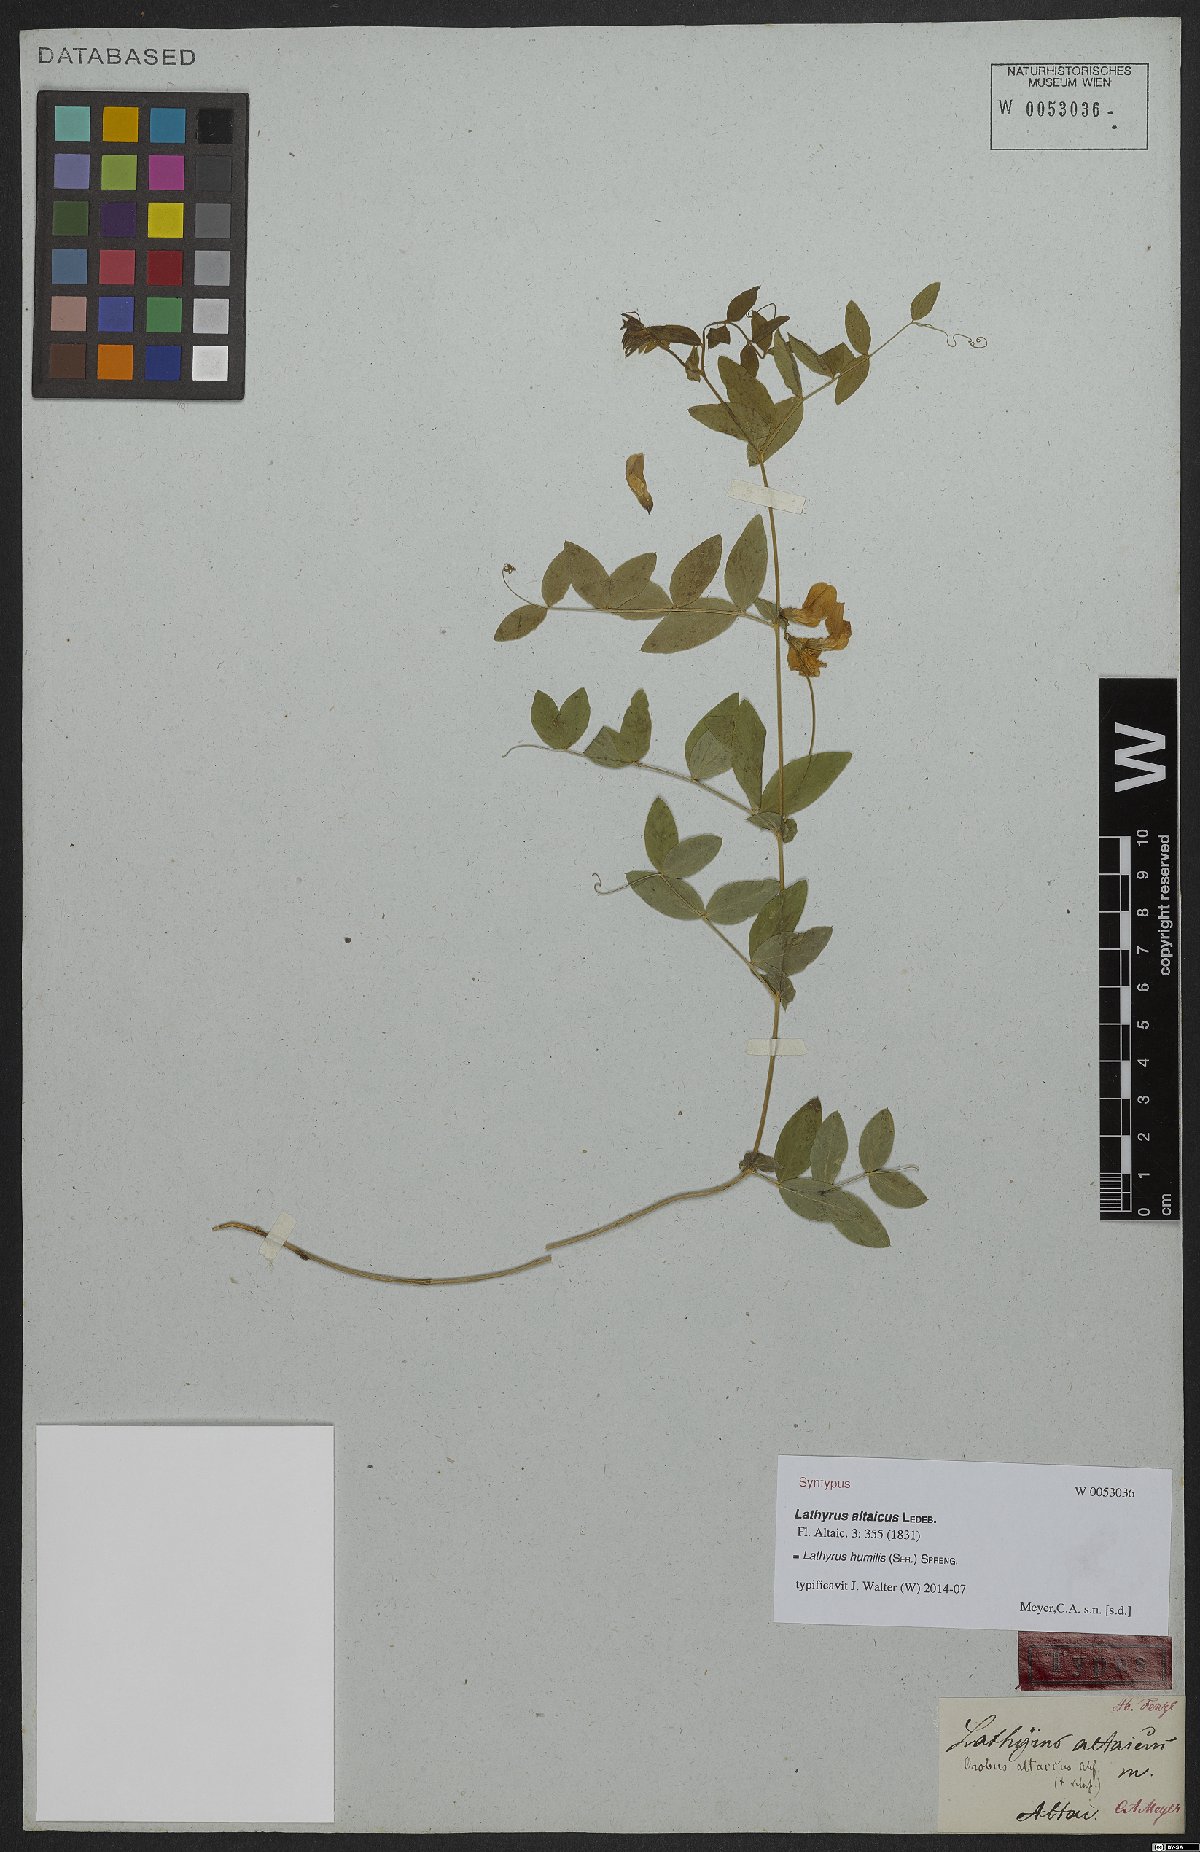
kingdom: Plantae
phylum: Tracheophyta
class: Magnoliopsida
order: Fabales
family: Fabaceae
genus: Lathyrus
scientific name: Lathyrus humilis
